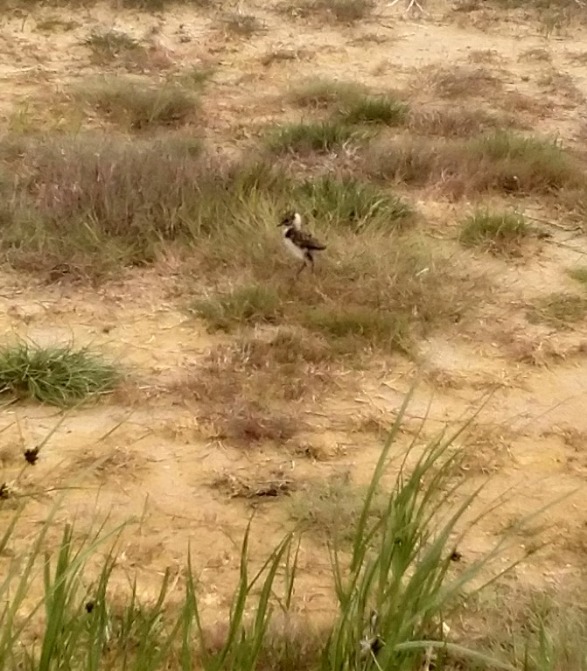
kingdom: Animalia
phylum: Chordata
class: Aves
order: Charadriiformes
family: Charadriidae
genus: Vanellus
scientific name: Vanellus vanellus
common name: Vibe
